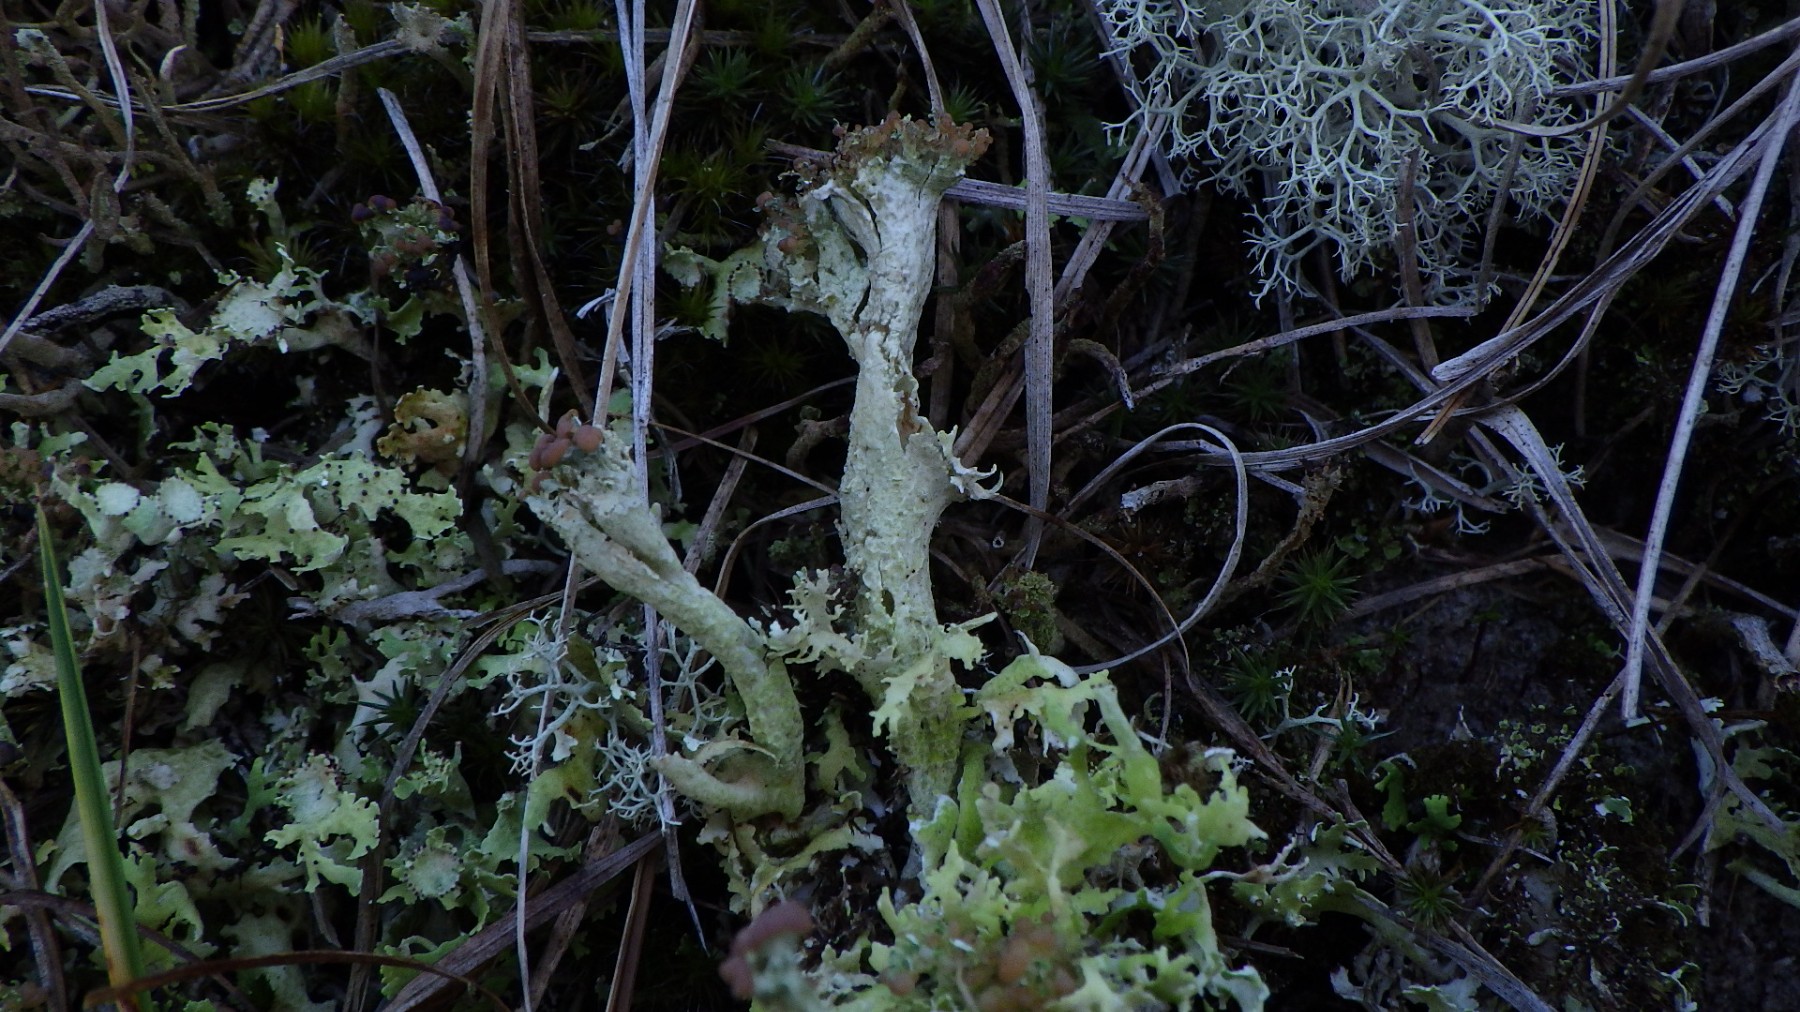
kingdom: Fungi
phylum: Ascomycota
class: Lecanoromycetes
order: Lecanorales
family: Cladoniaceae
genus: Cladonia
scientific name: Cladonia foliacea
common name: fliget bægerlav
